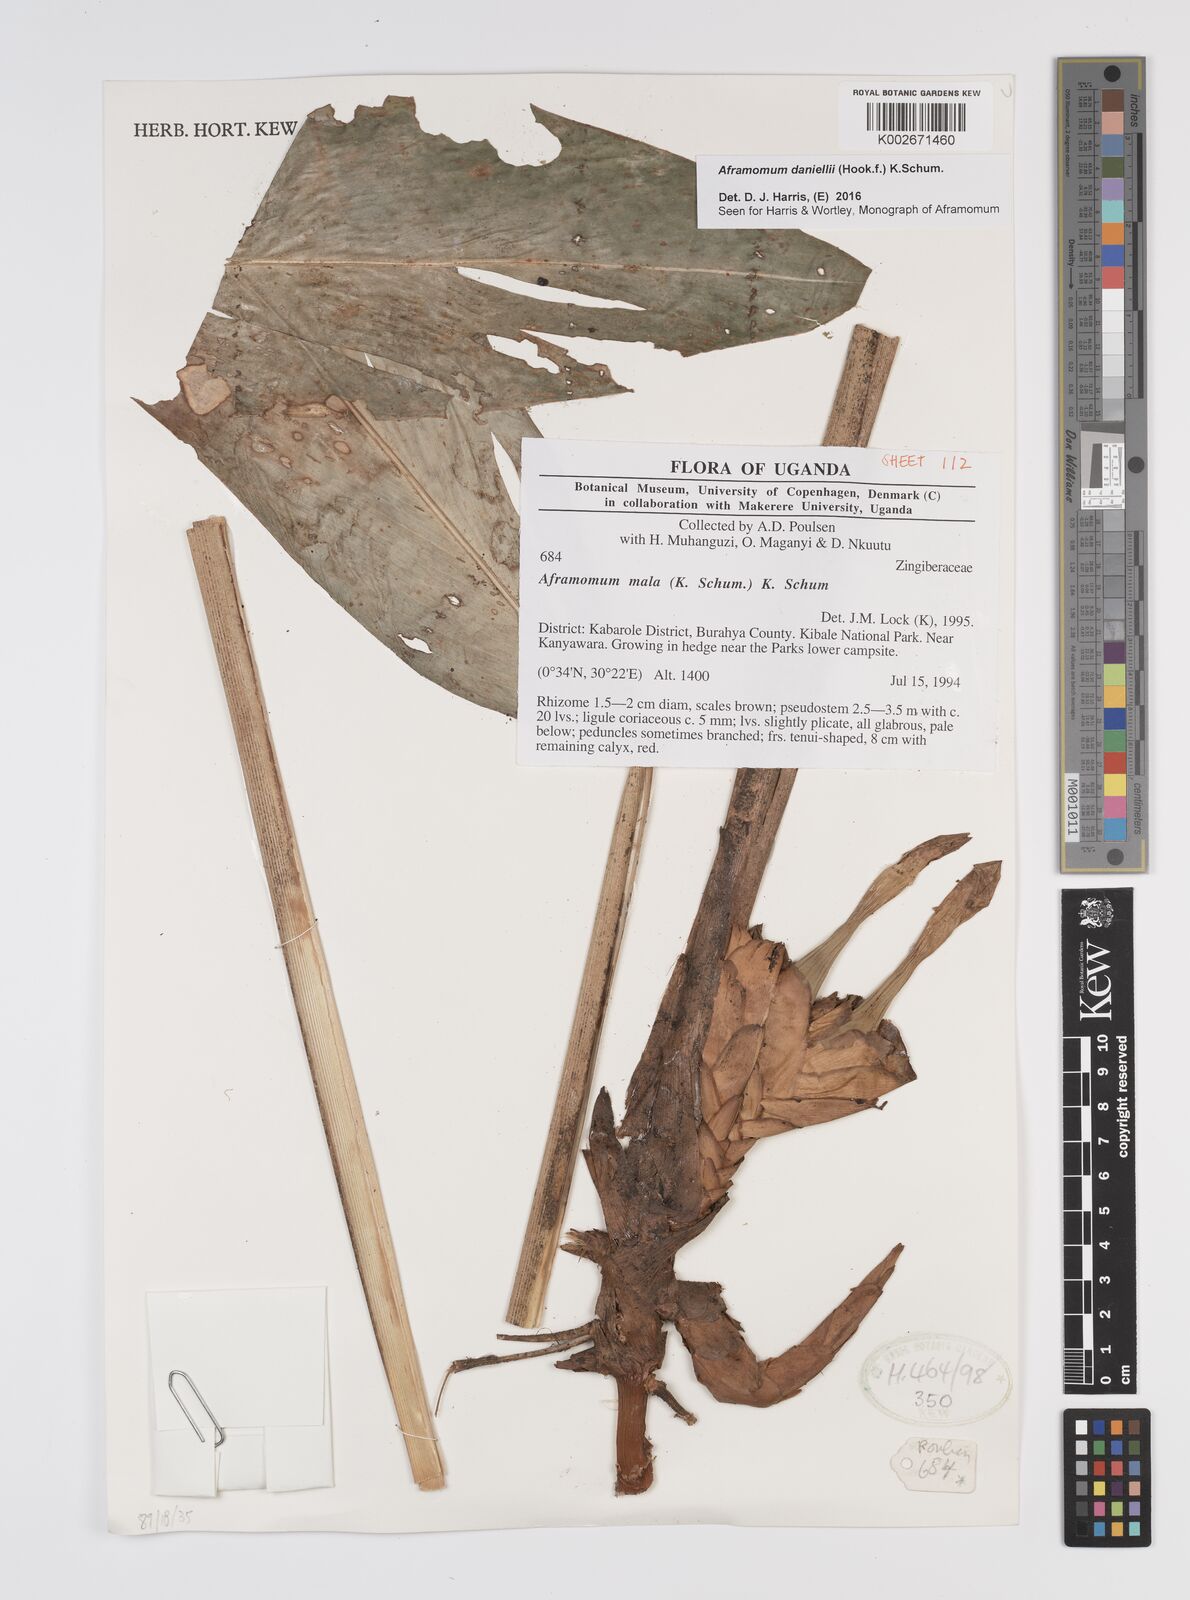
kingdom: Plantae
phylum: Tracheophyta
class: Liliopsida
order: Zingiberales
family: Zingiberaceae
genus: Aframomum
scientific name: Aframomum daniellii
